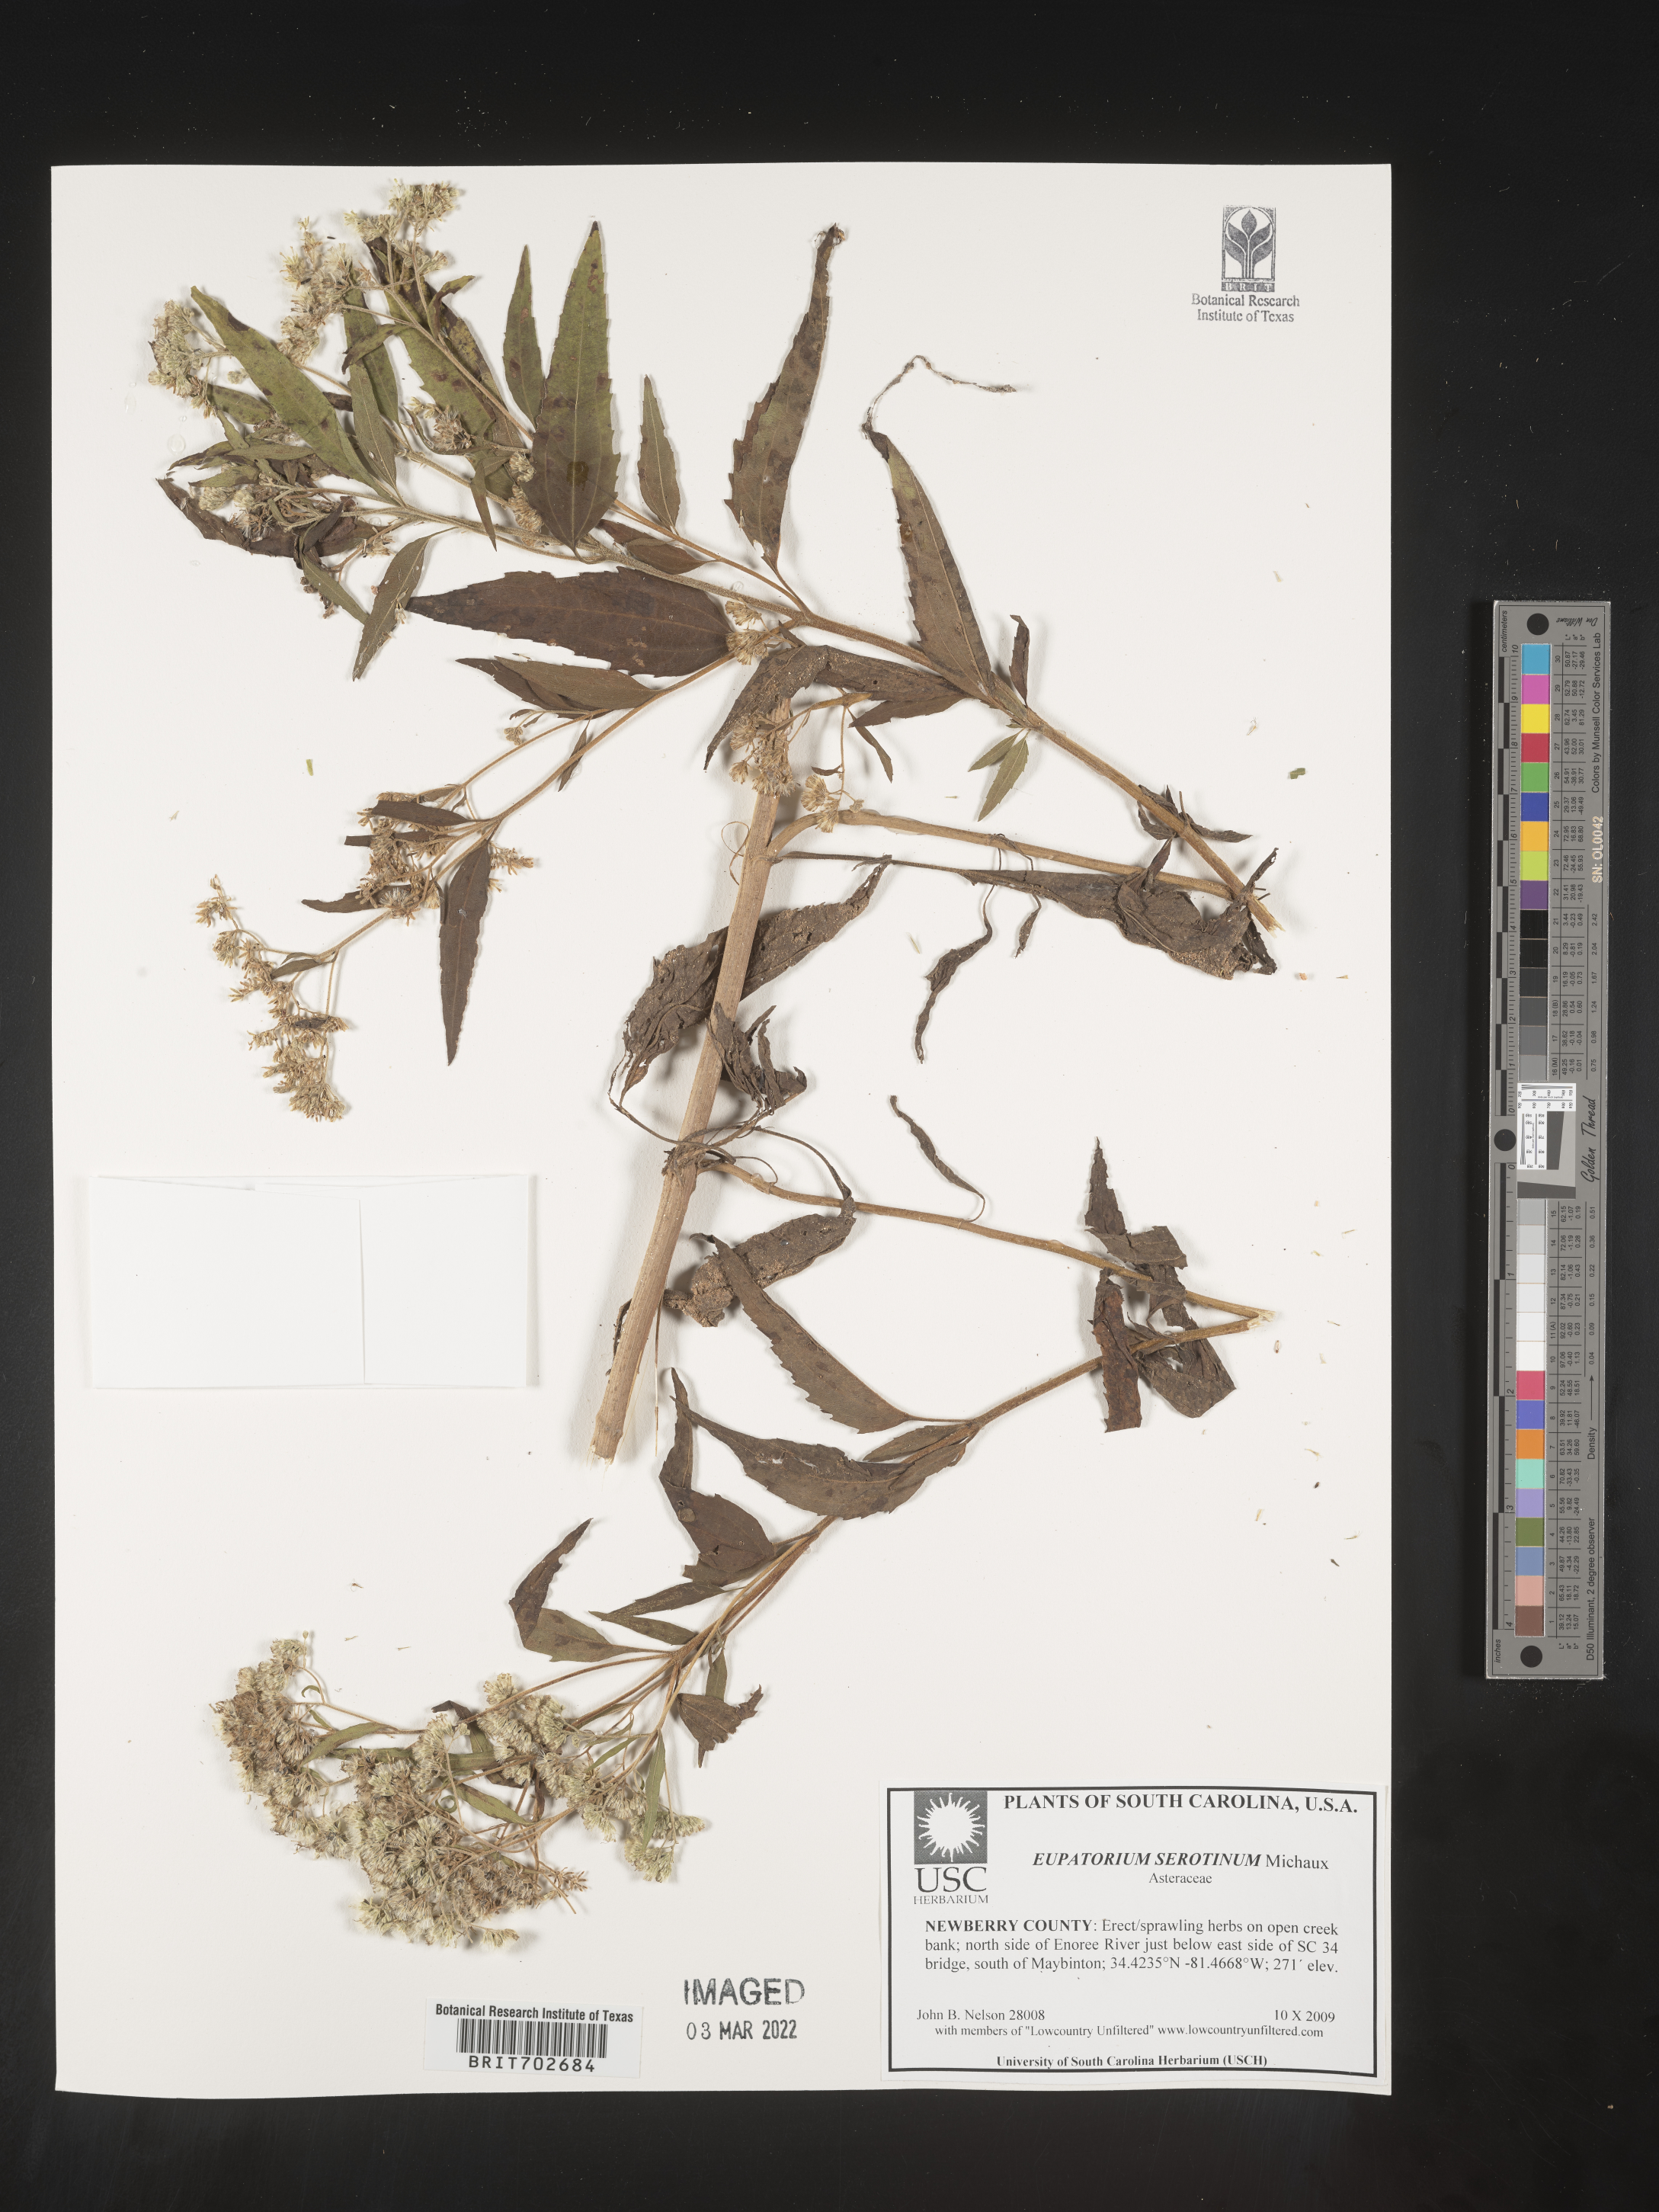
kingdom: Plantae
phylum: Tracheophyta
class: Magnoliopsida
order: Asterales
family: Asteraceae
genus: Eupatorium
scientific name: Eupatorium serotinum
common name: Late boneset
